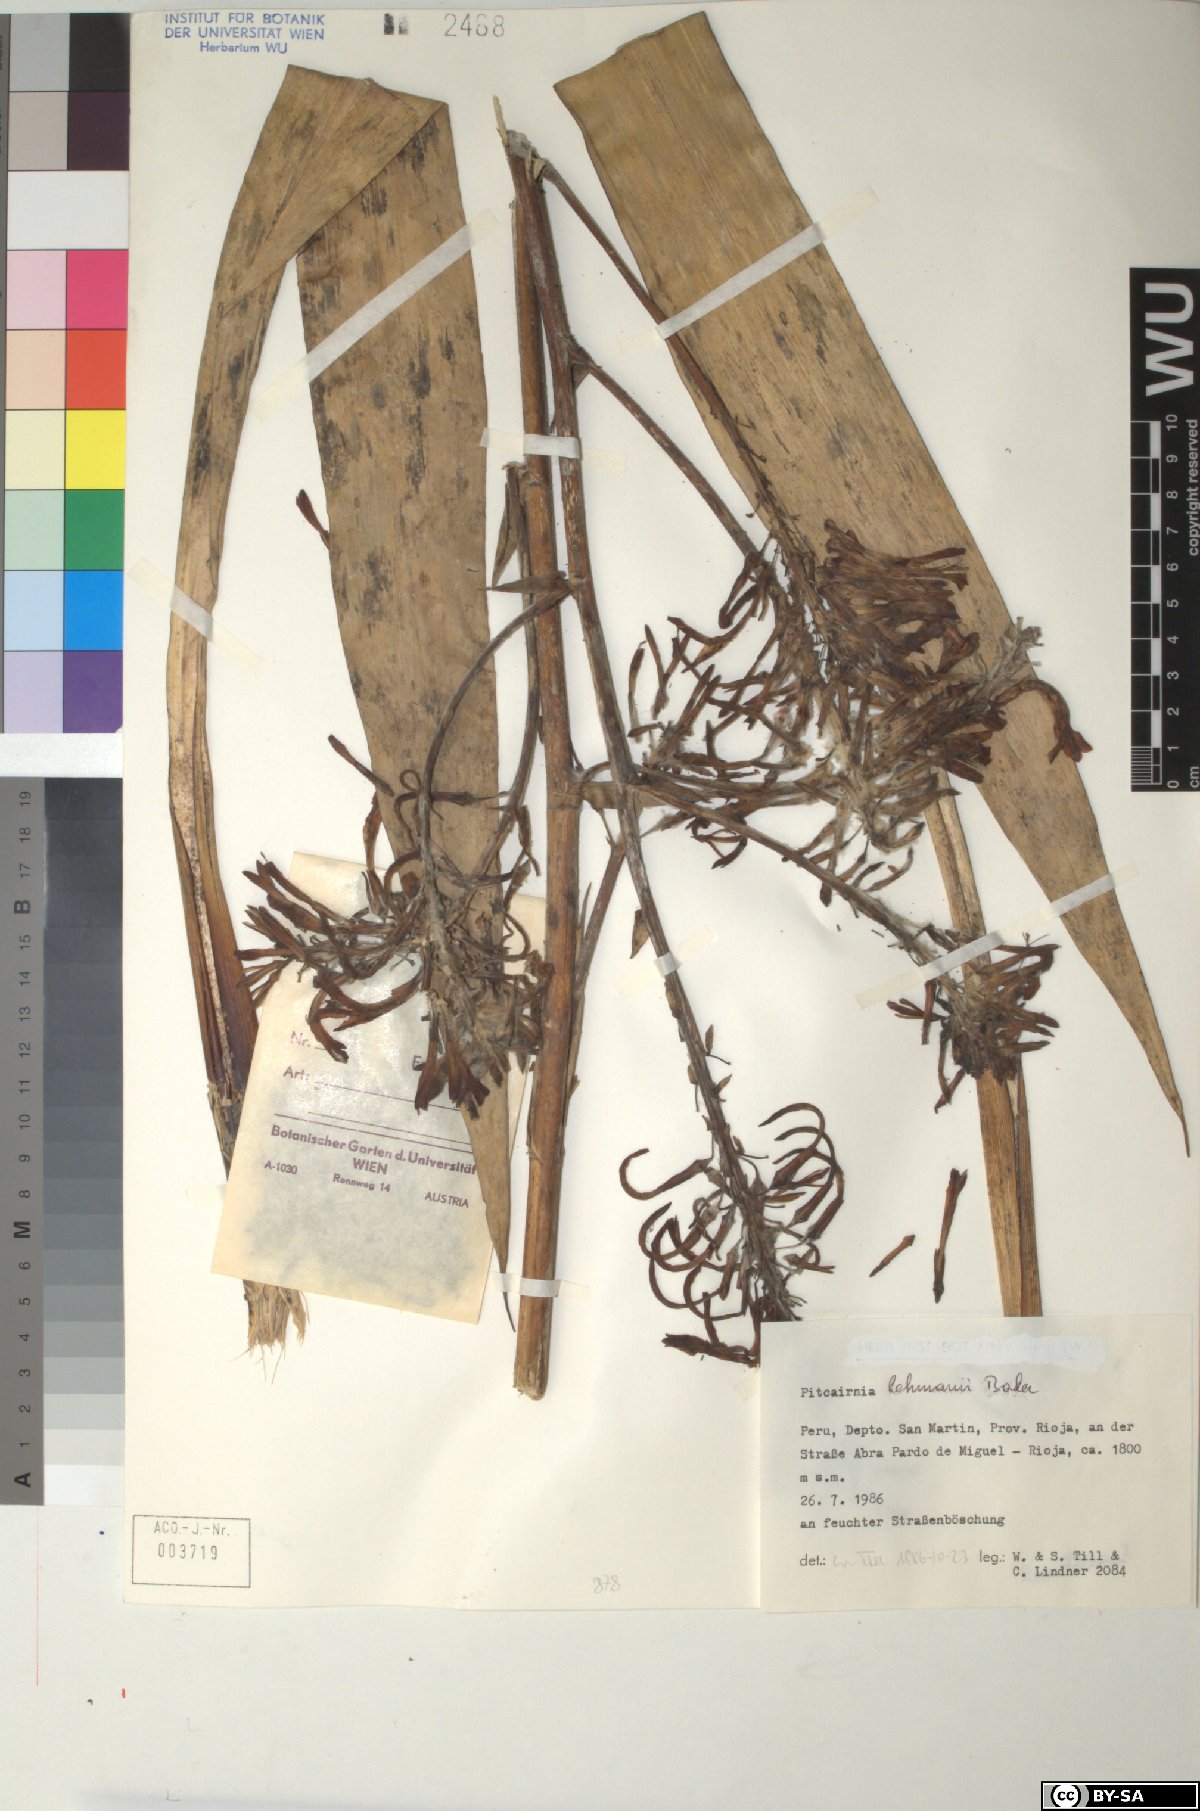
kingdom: Plantae
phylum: Tracheophyta
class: Liliopsida
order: Poales
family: Bromeliaceae
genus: Pitcairnia
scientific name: Pitcairnia lehmannii
